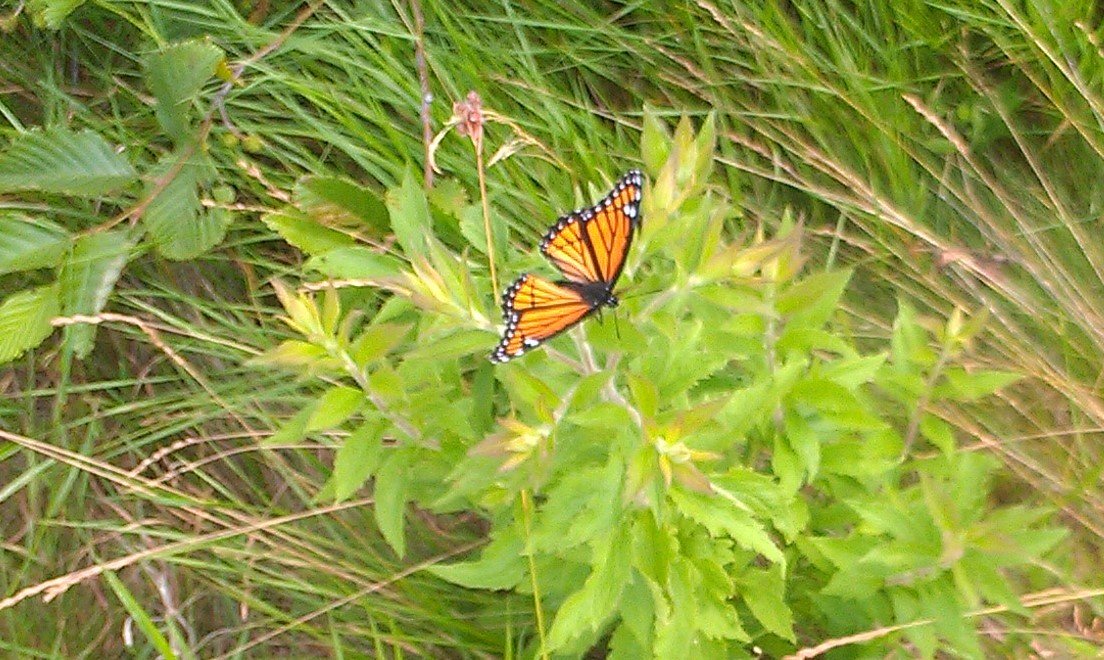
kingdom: Animalia
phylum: Arthropoda
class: Insecta
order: Lepidoptera
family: Nymphalidae
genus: Limenitis
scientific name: Limenitis archippus
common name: Viceroy
